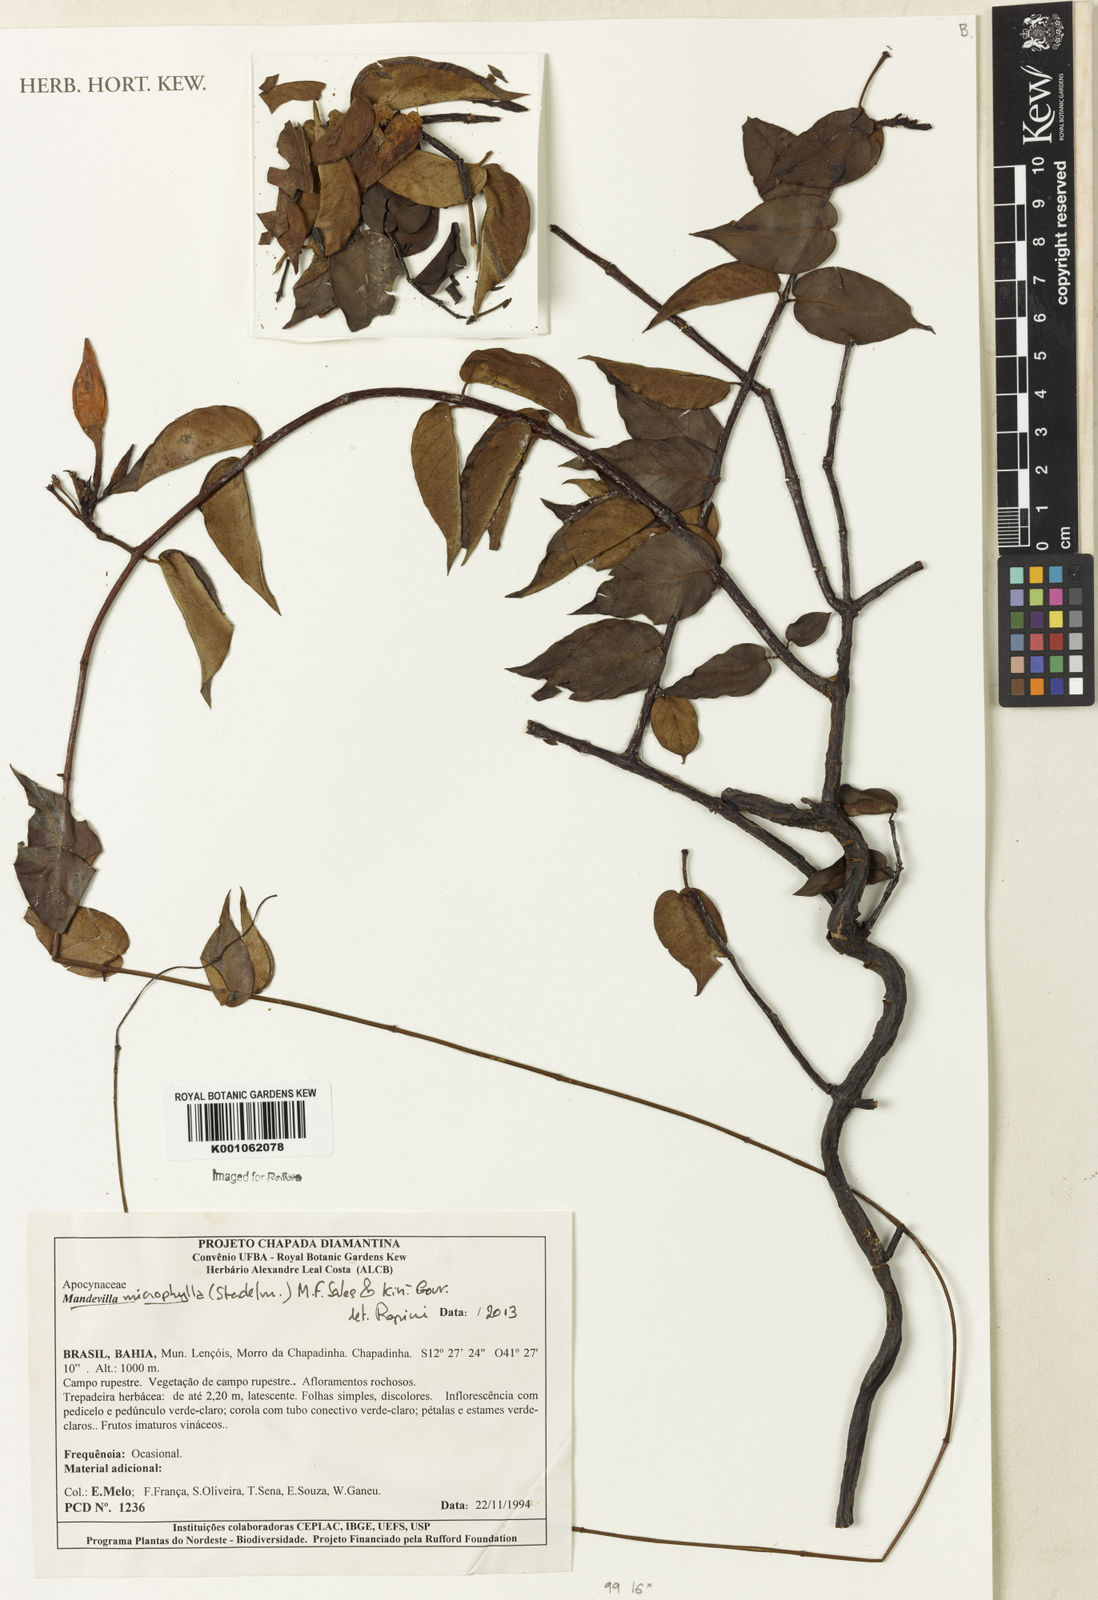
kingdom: Plantae
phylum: Tracheophyta
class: Magnoliopsida
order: Gentianales
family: Apocynaceae
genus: Mandevilla
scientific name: Mandevilla
